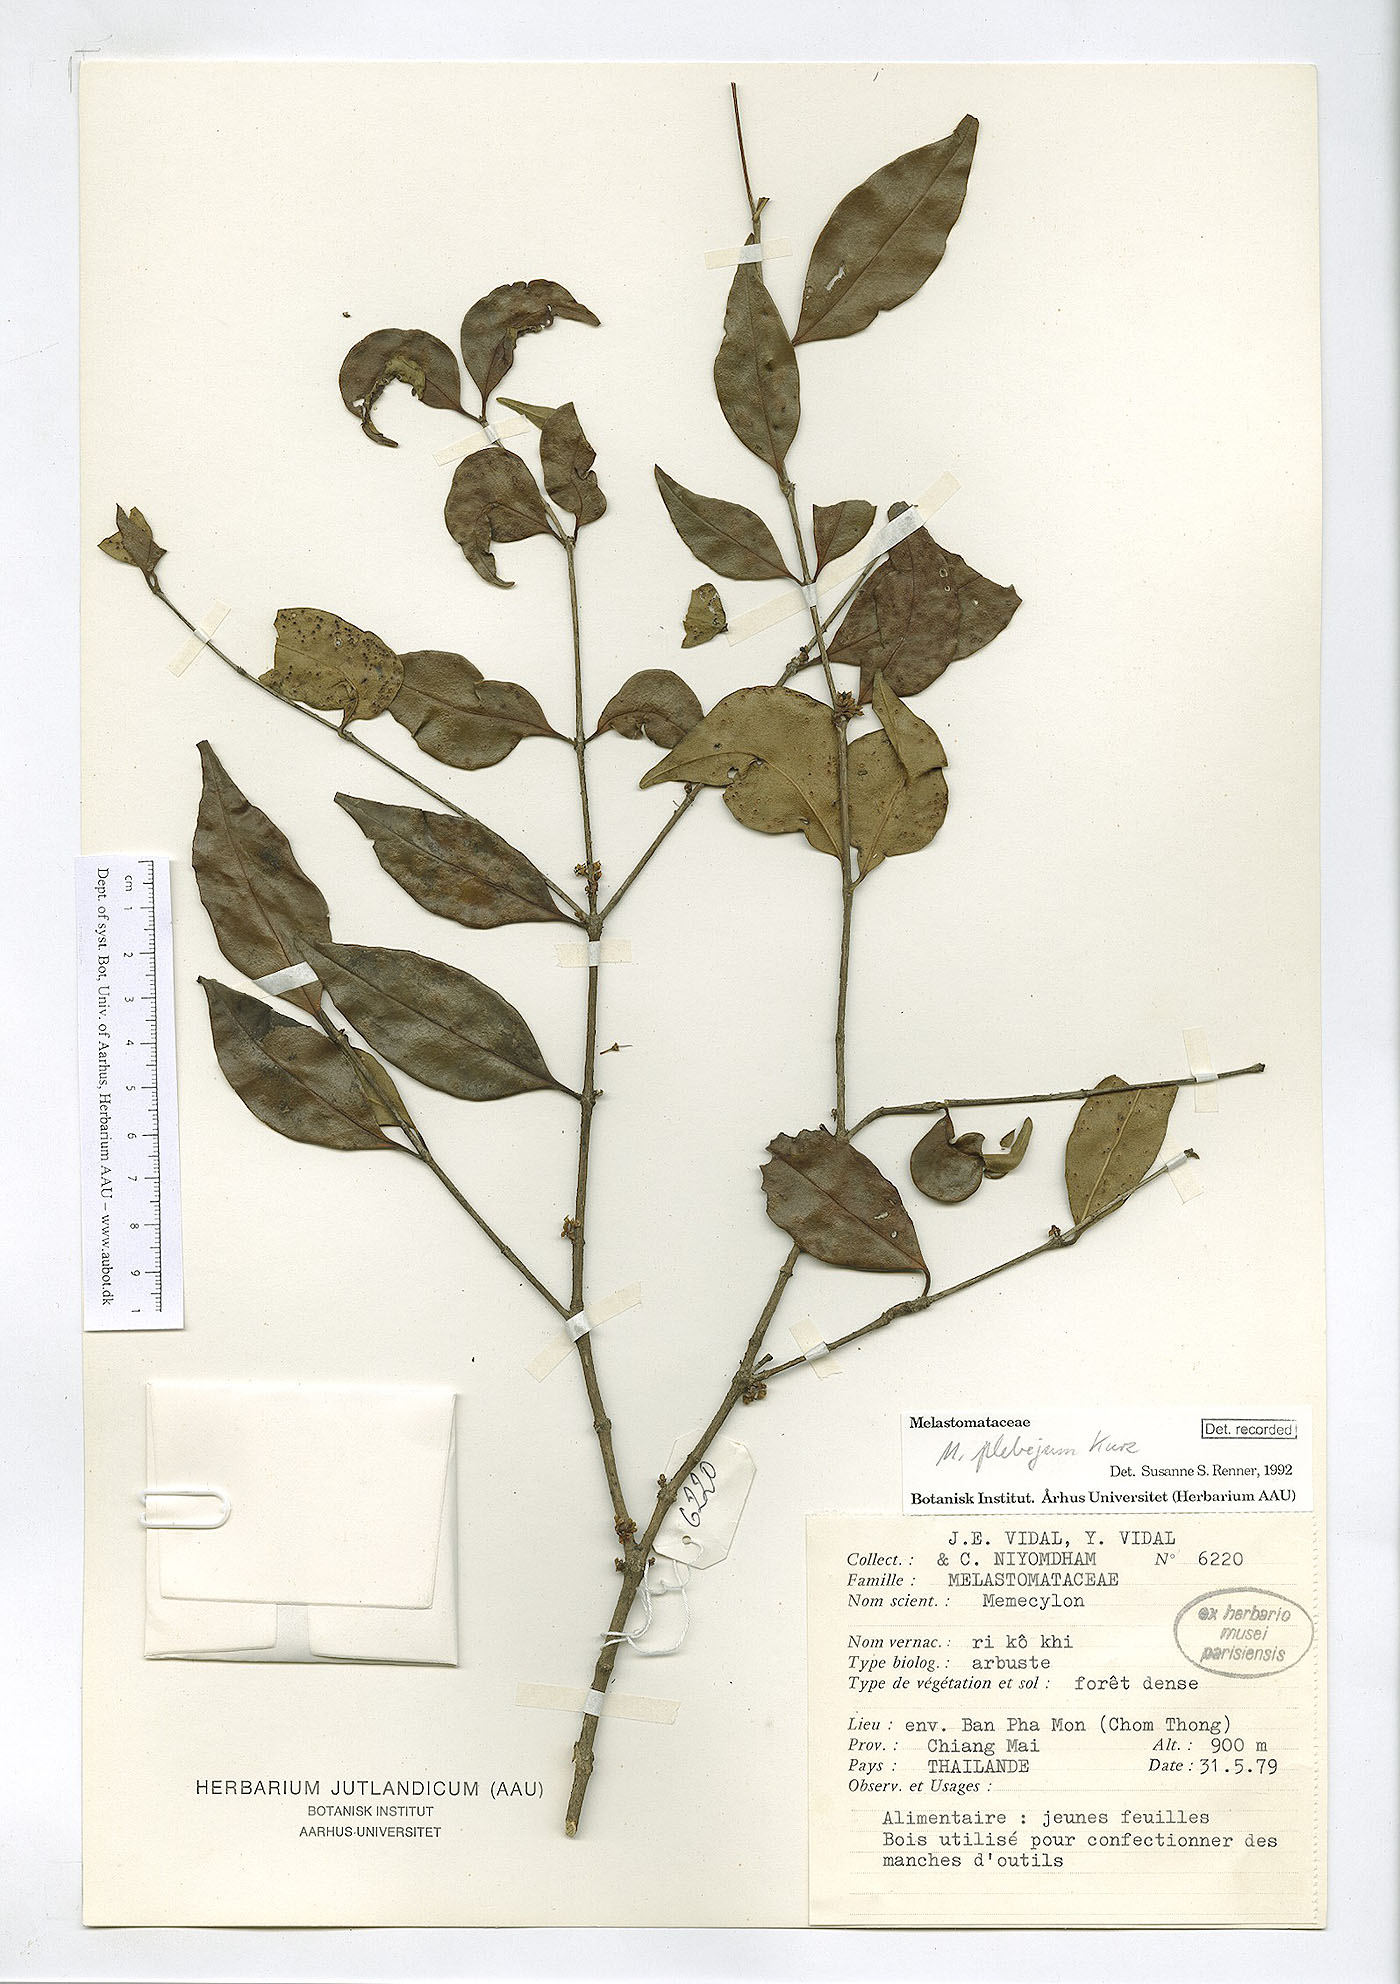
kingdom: Plantae
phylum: Tracheophyta
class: Magnoliopsida
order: Myrtales
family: Melastomataceae
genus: Memecylon
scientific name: Memecylon plebejum
